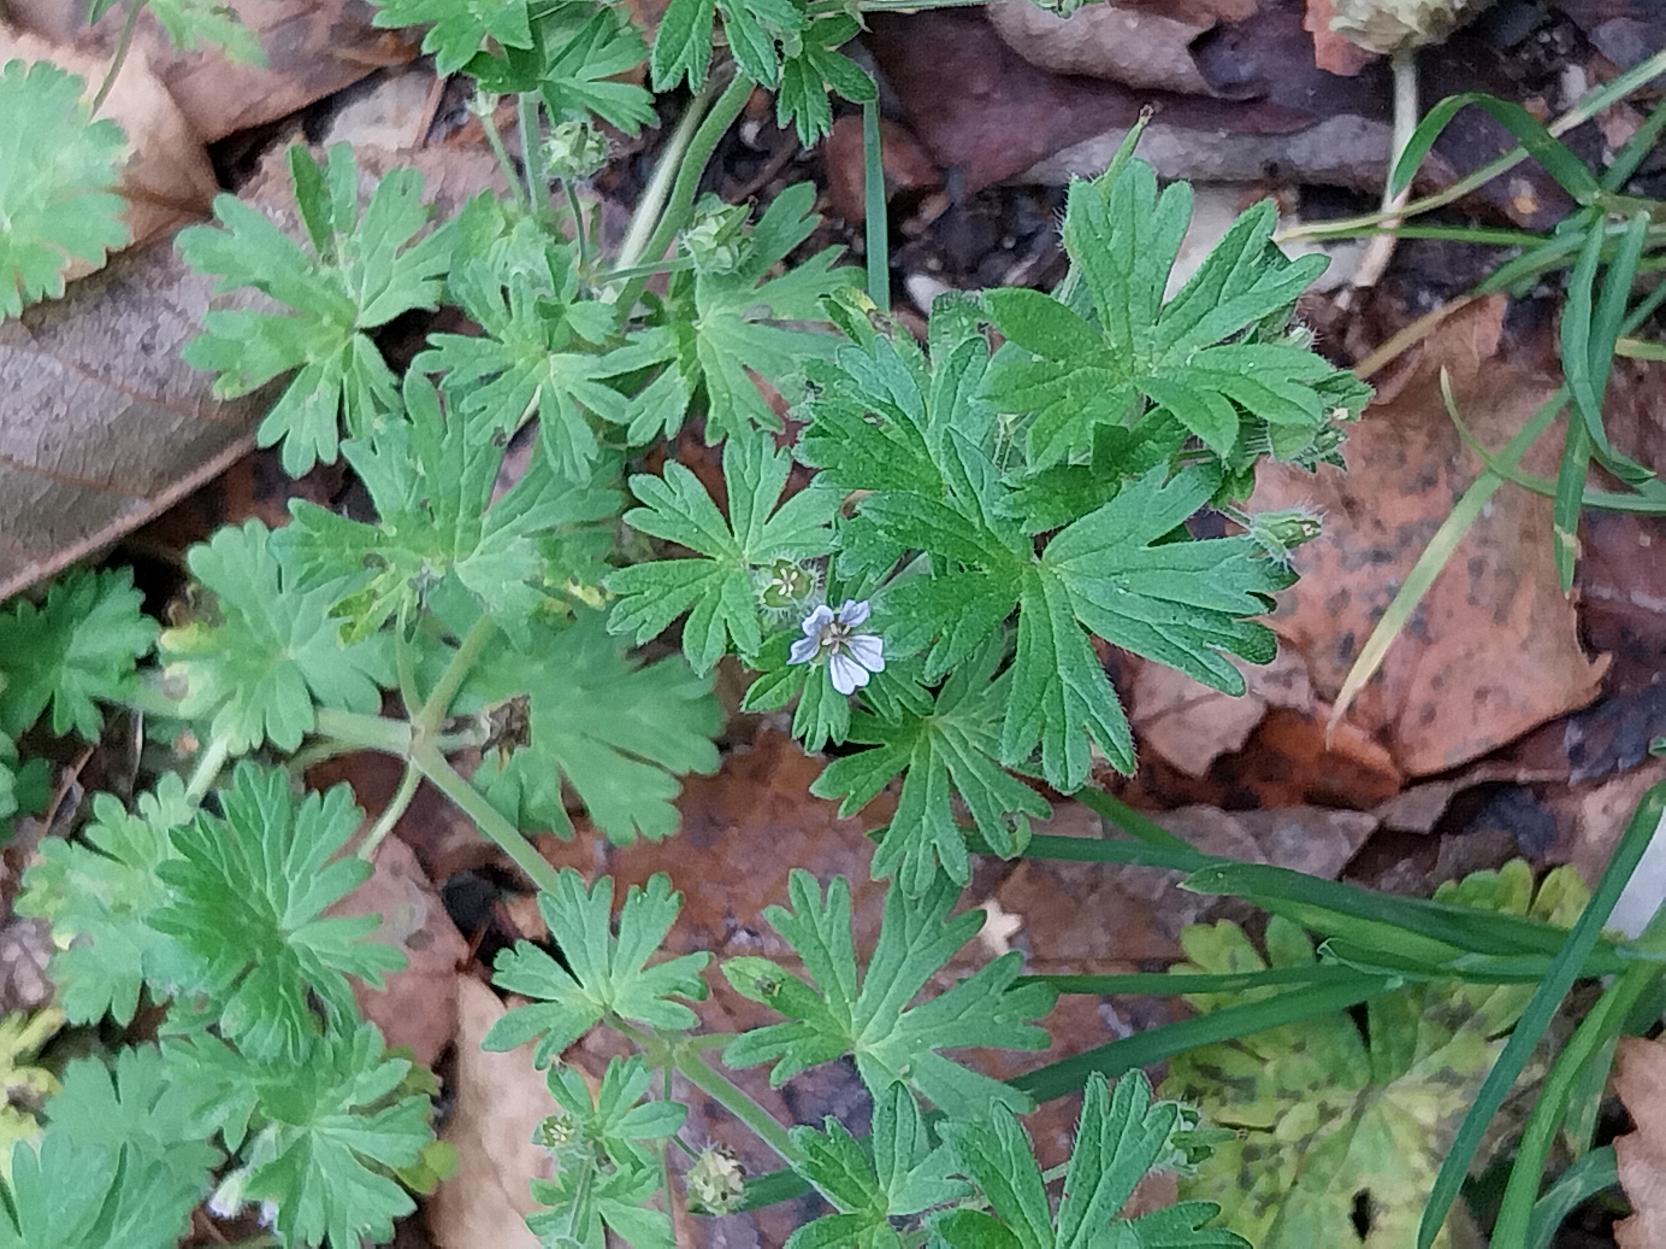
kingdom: Plantae
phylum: Tracheophyta
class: Magnoliopsida
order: Geraniales
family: Geraniaceae
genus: Geranium
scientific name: Geranium pusillum
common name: Liden storkenæb
